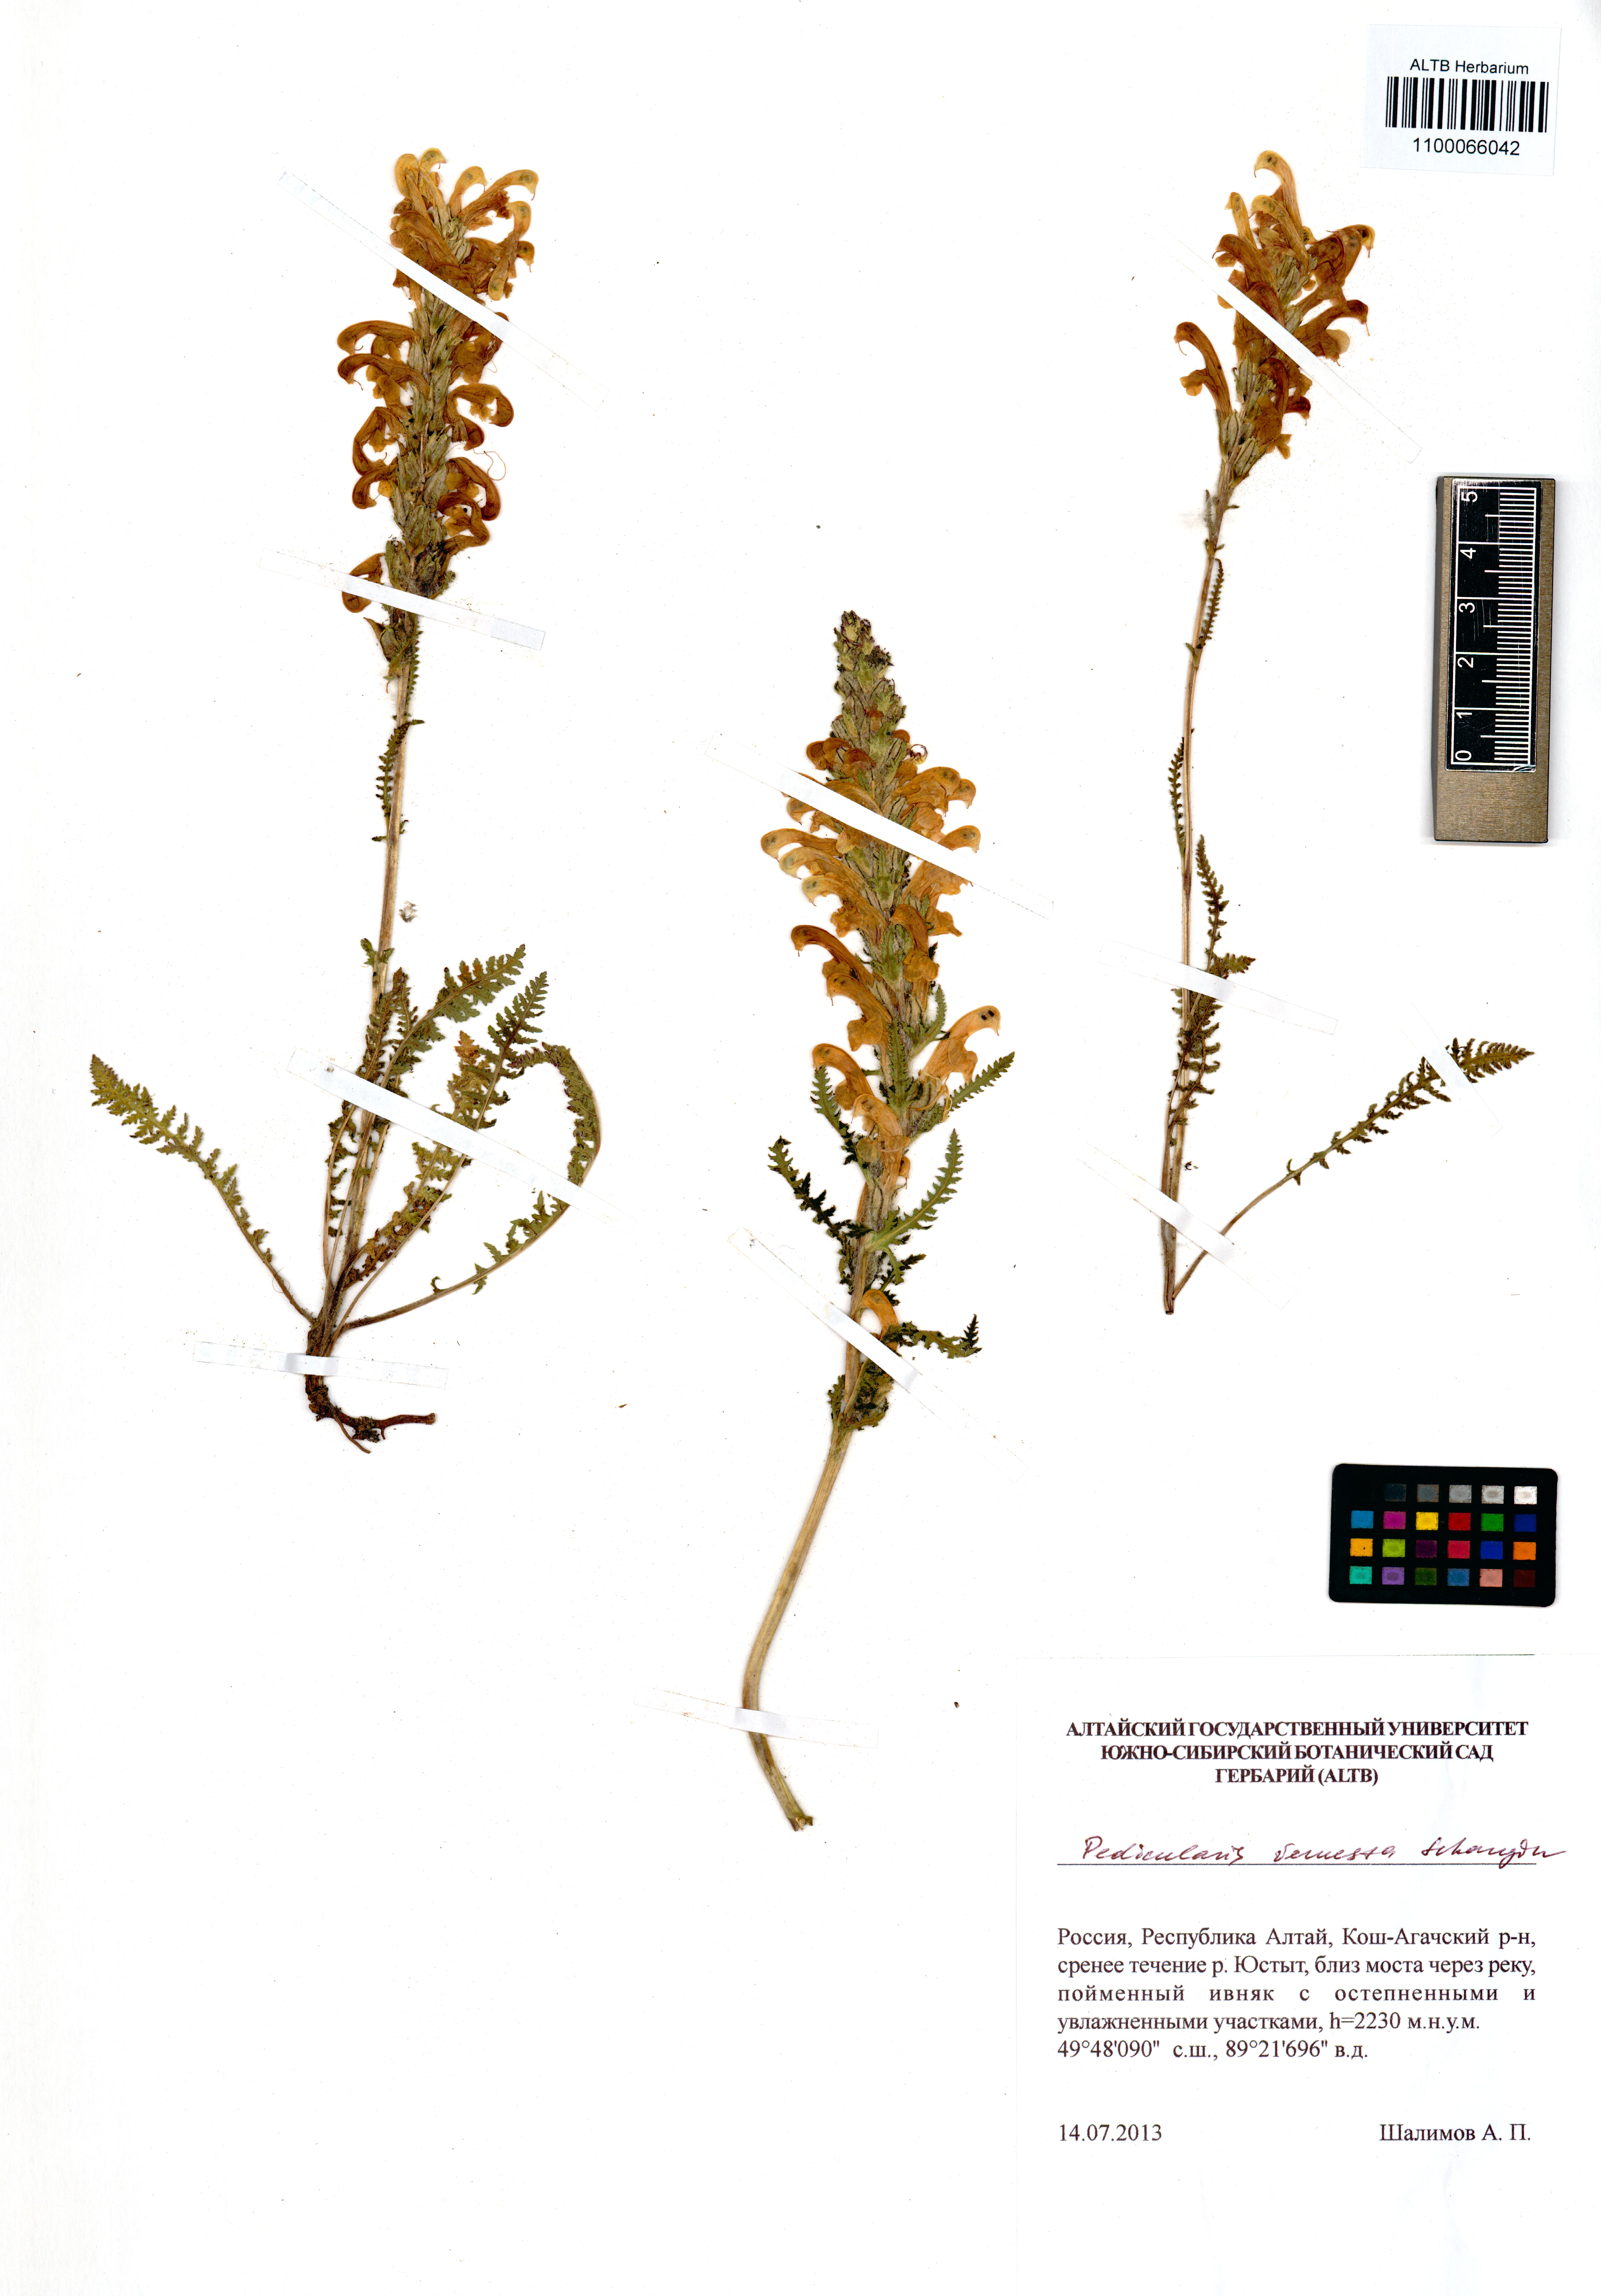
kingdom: Plantae
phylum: Tracheophyta
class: Magnoliopsida
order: Lamiales
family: Orobanchaceae
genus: Pedicularis
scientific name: Pedicularis venusta
